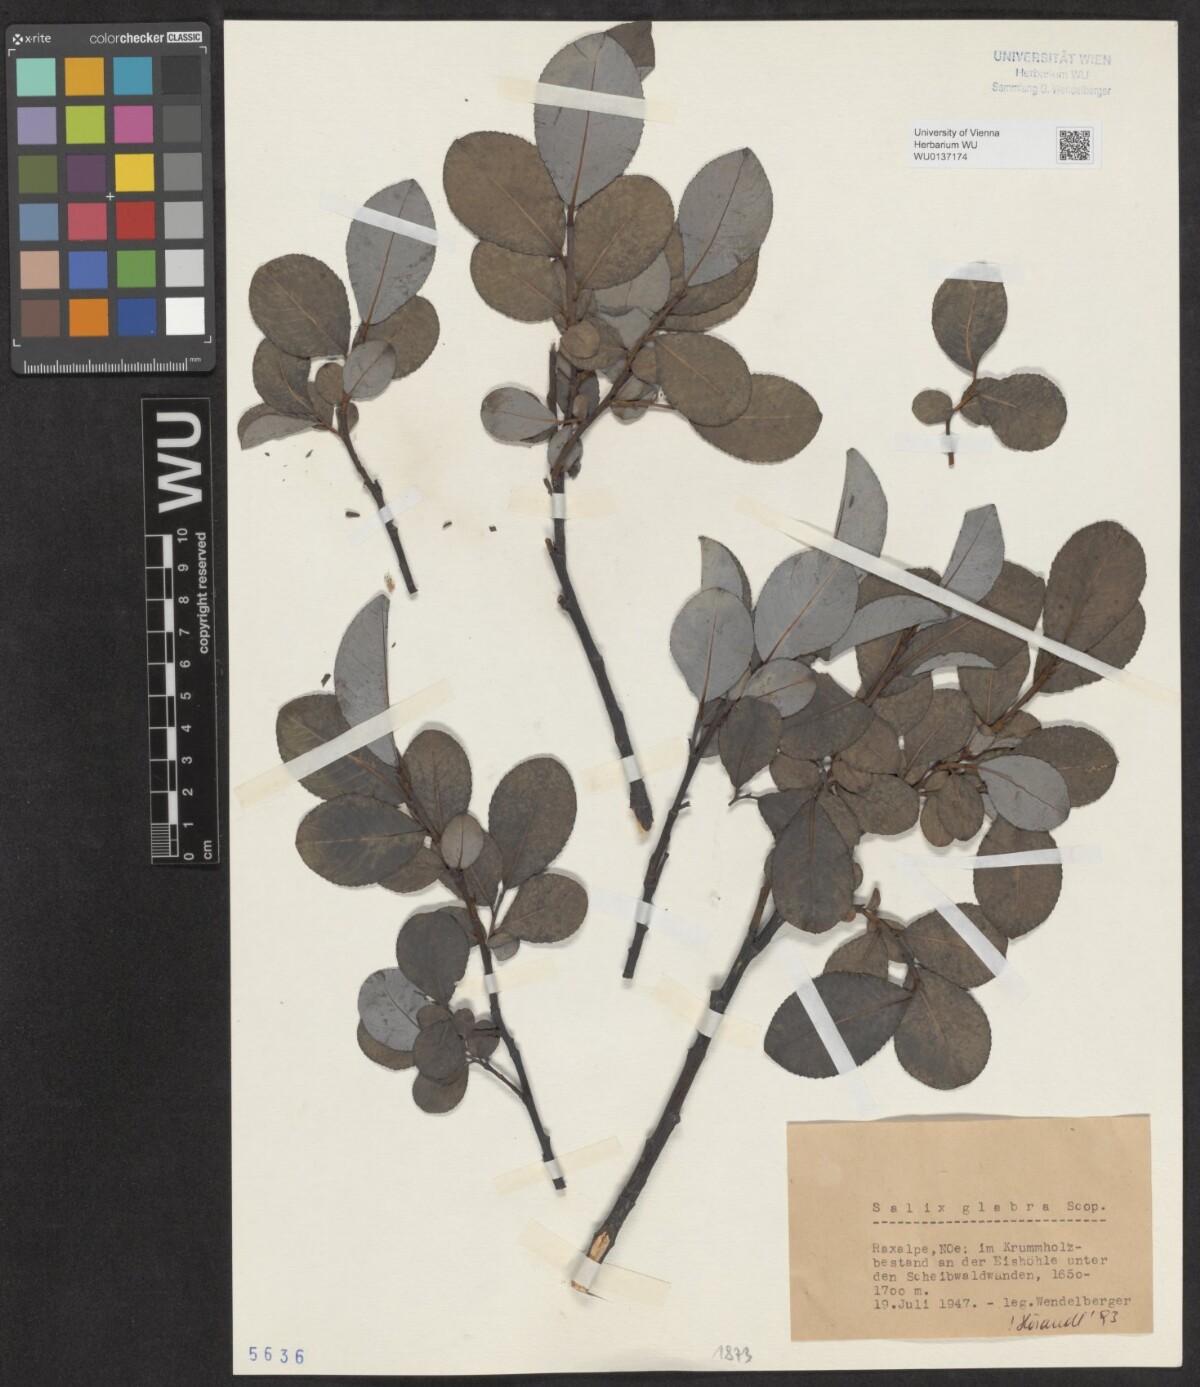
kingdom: Plantae
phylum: Tracheophyta
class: Magnoliopsida
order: Malpighiales
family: Salicaceae
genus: Salix
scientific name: Salix glabra
